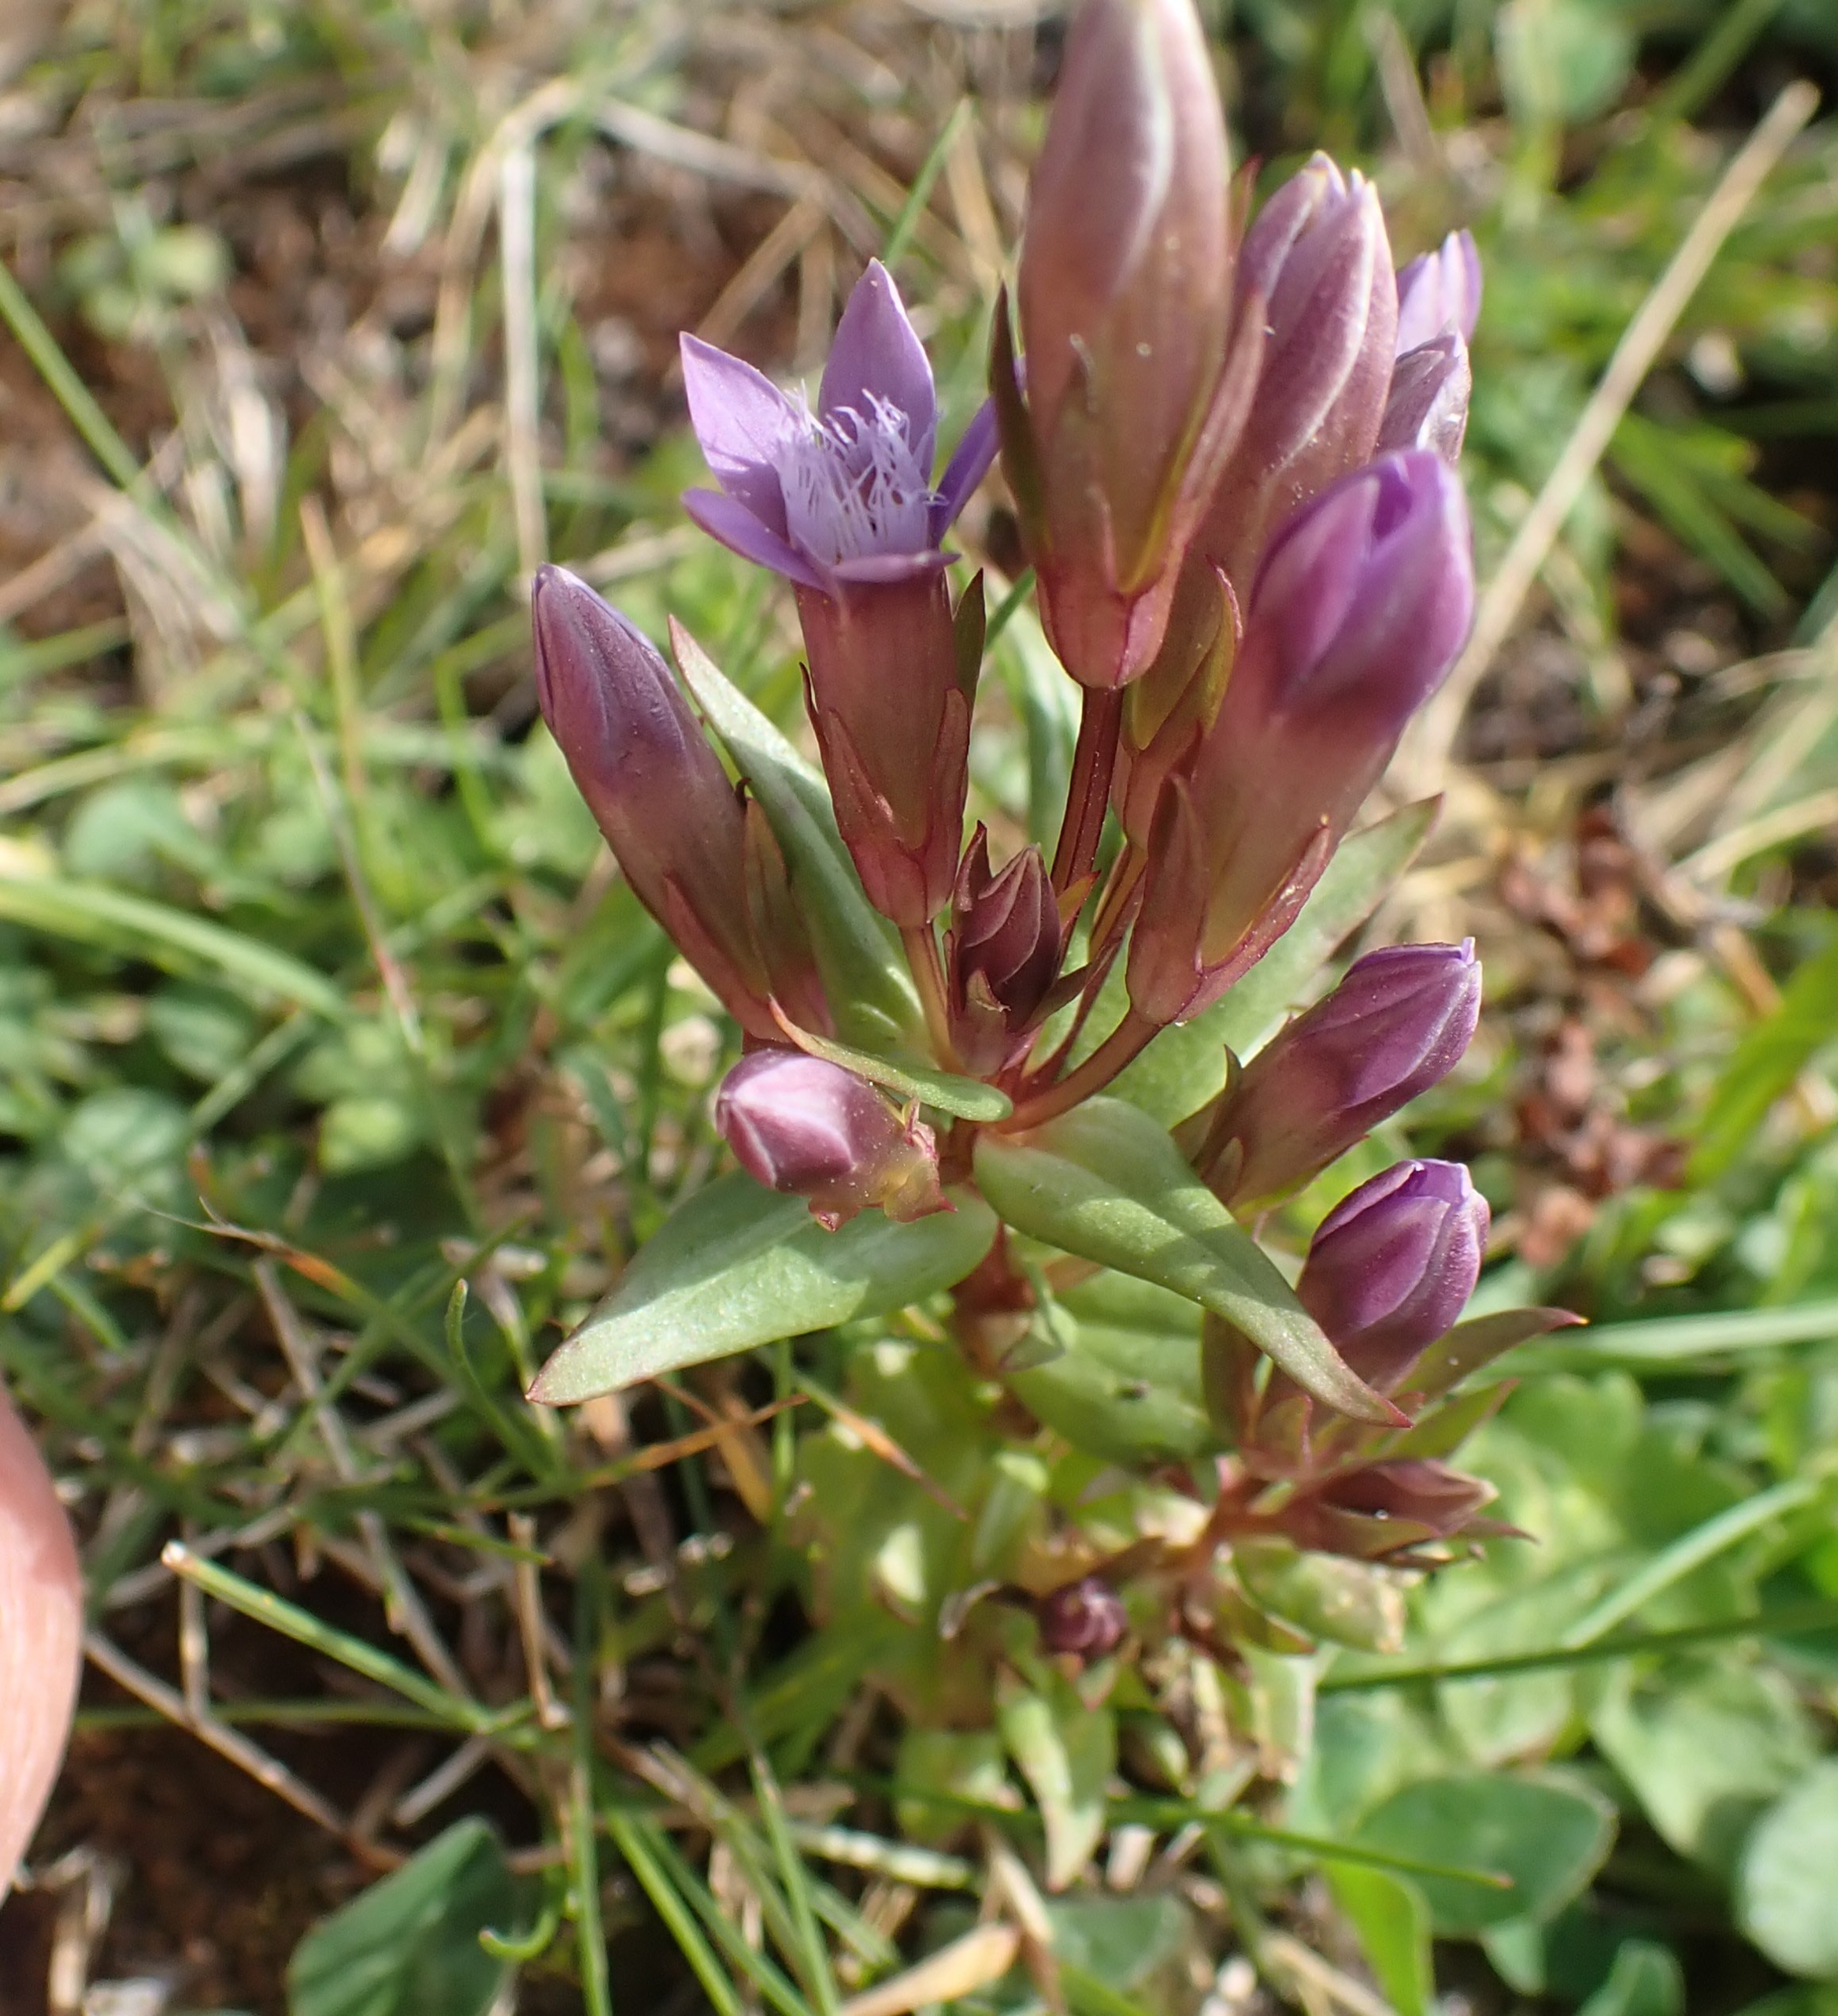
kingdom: Plantae
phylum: Tracheophyta
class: Magnoliopsida
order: Gentianales
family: Gentianaceae
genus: Gentianella
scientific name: Gentianella uliginosa
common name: Eng-ensian
